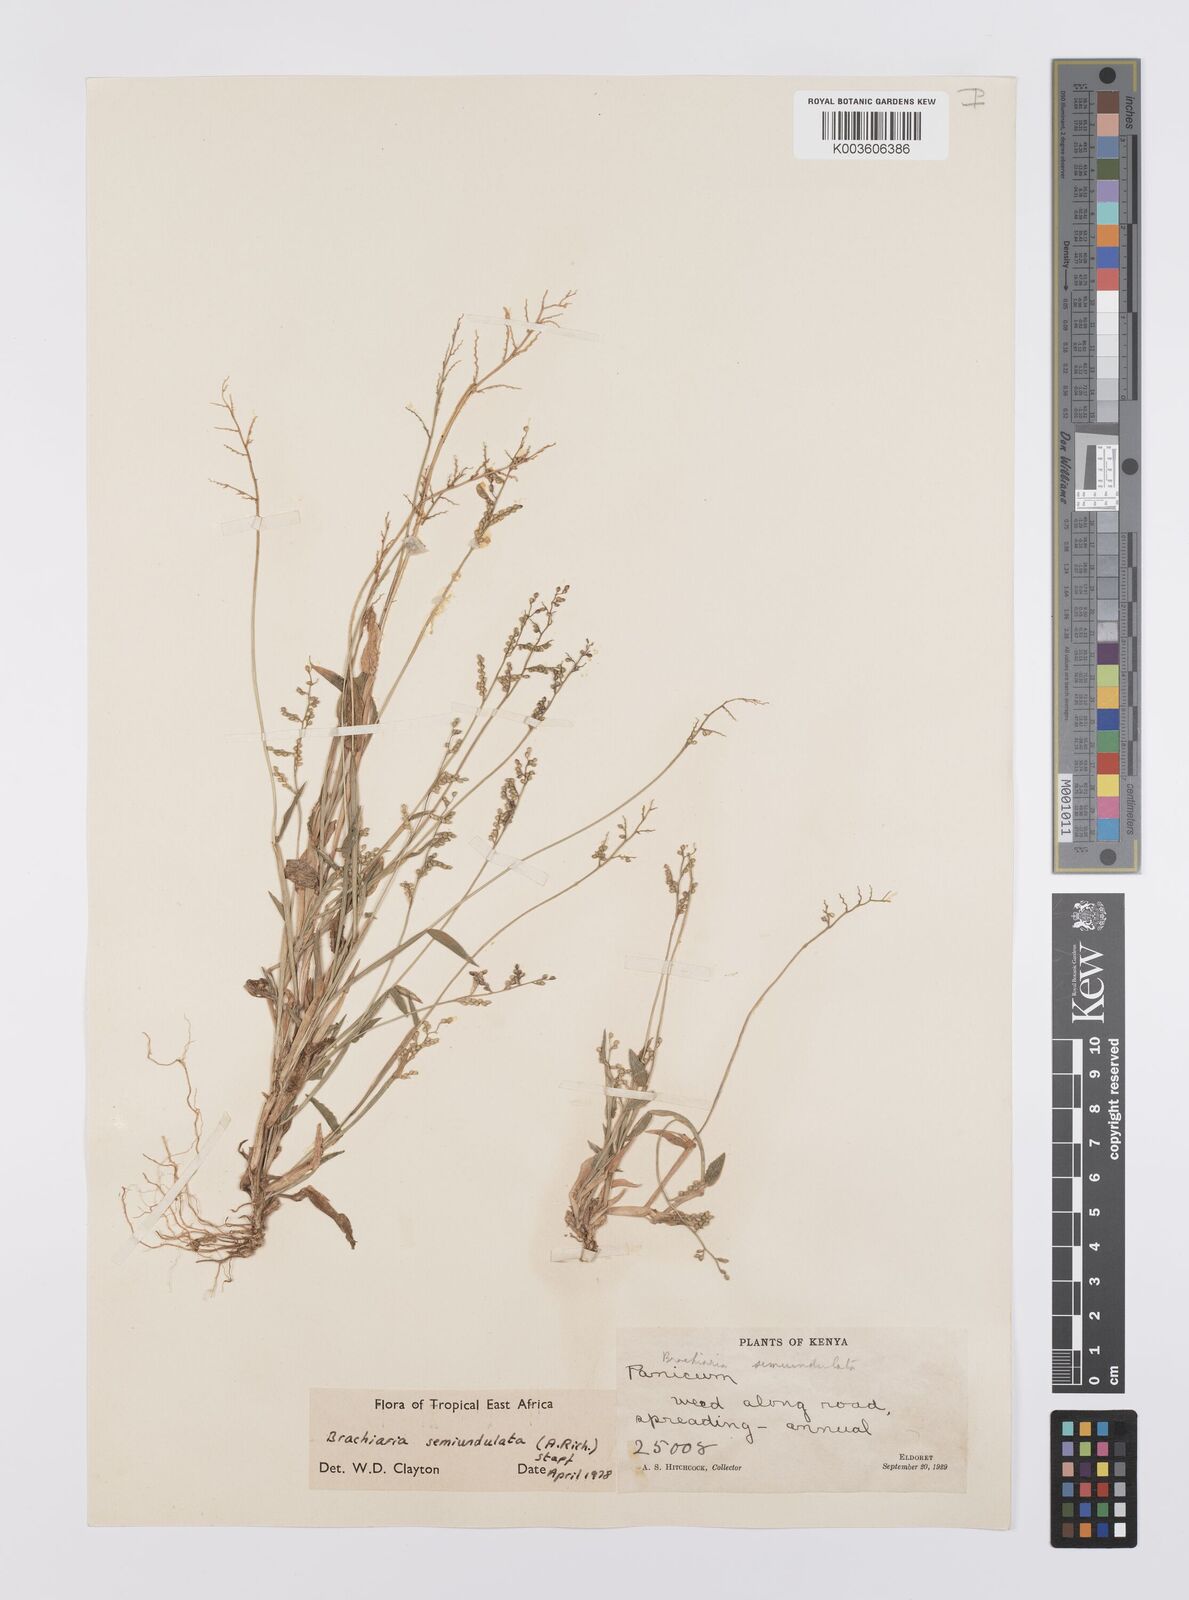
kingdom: Plantae
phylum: Tracheophyta
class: Liliopsida
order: Poales
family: Poaceae
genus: Urochloa
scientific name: Urochloa semiundulata
